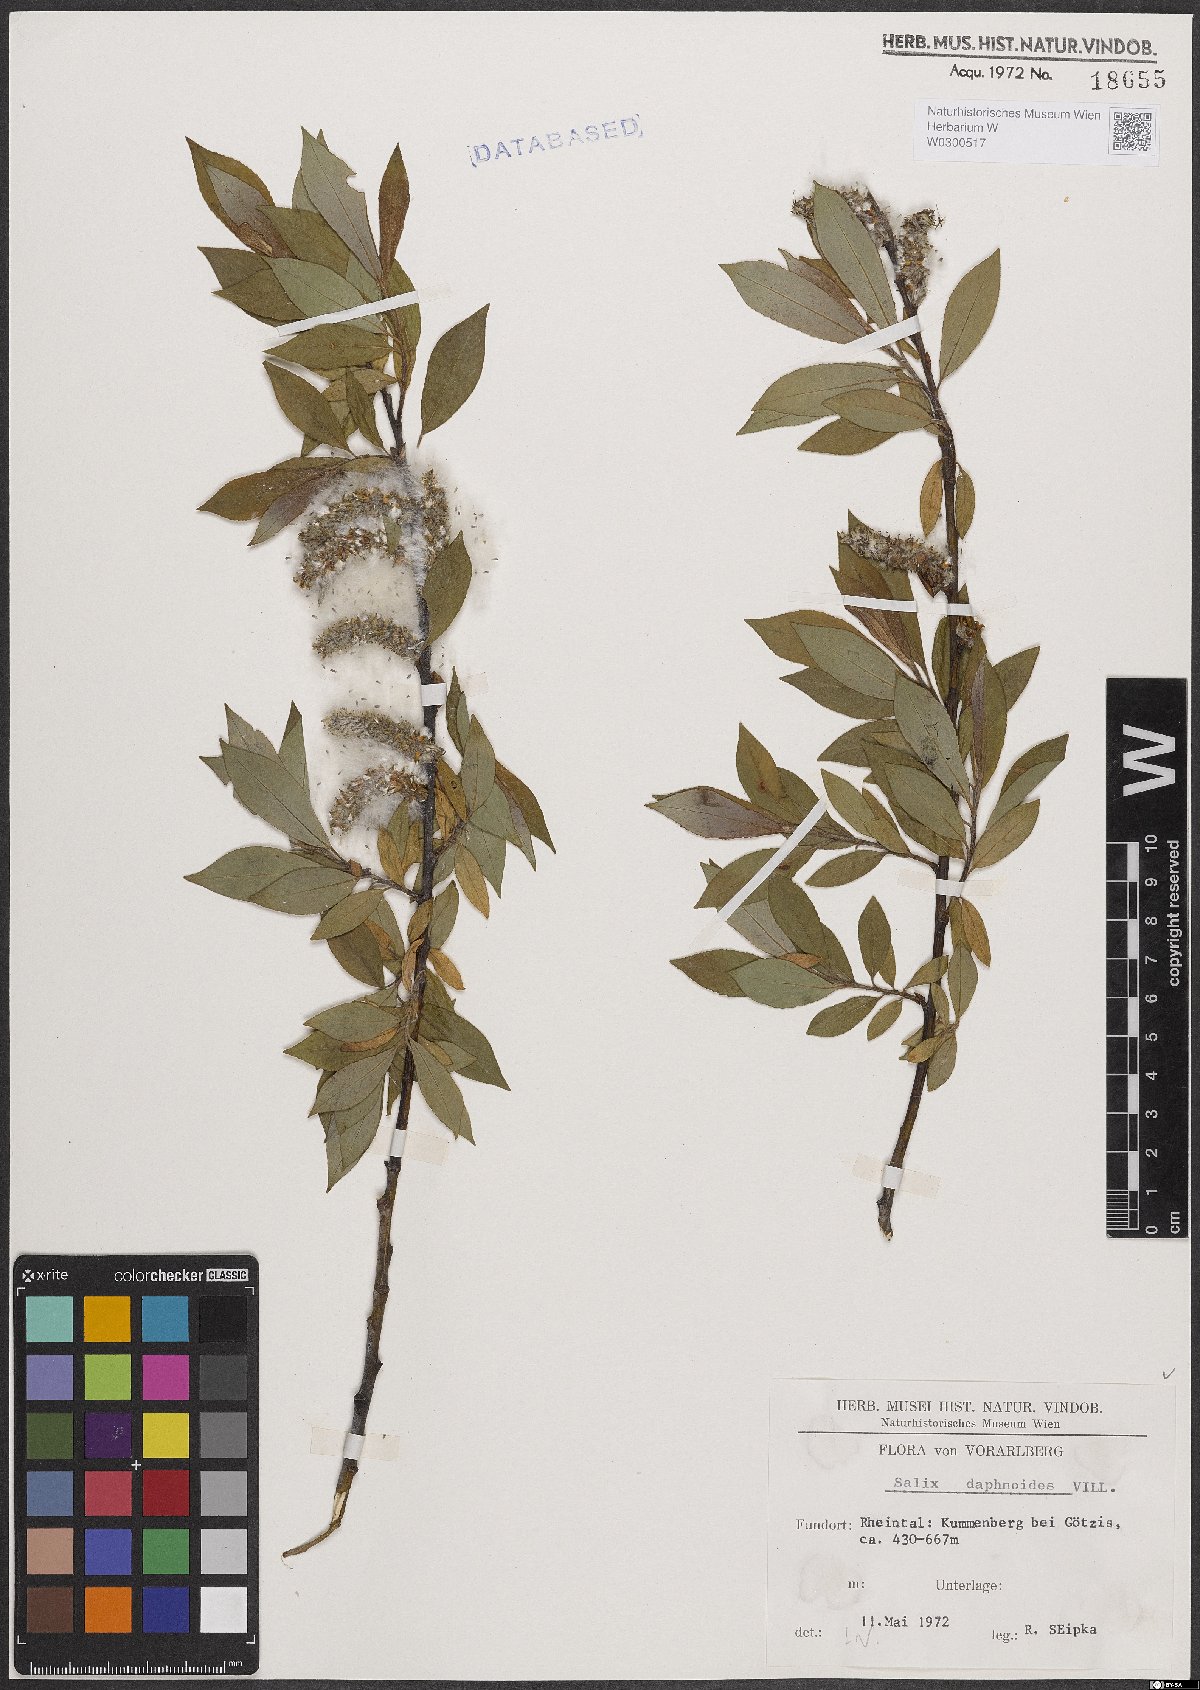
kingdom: Plantae
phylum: Tracheophyta
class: Magnoliopsida
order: Malpighiales
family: Salicaceae
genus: Salix
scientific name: Salix daphnoides
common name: European violet-willow
